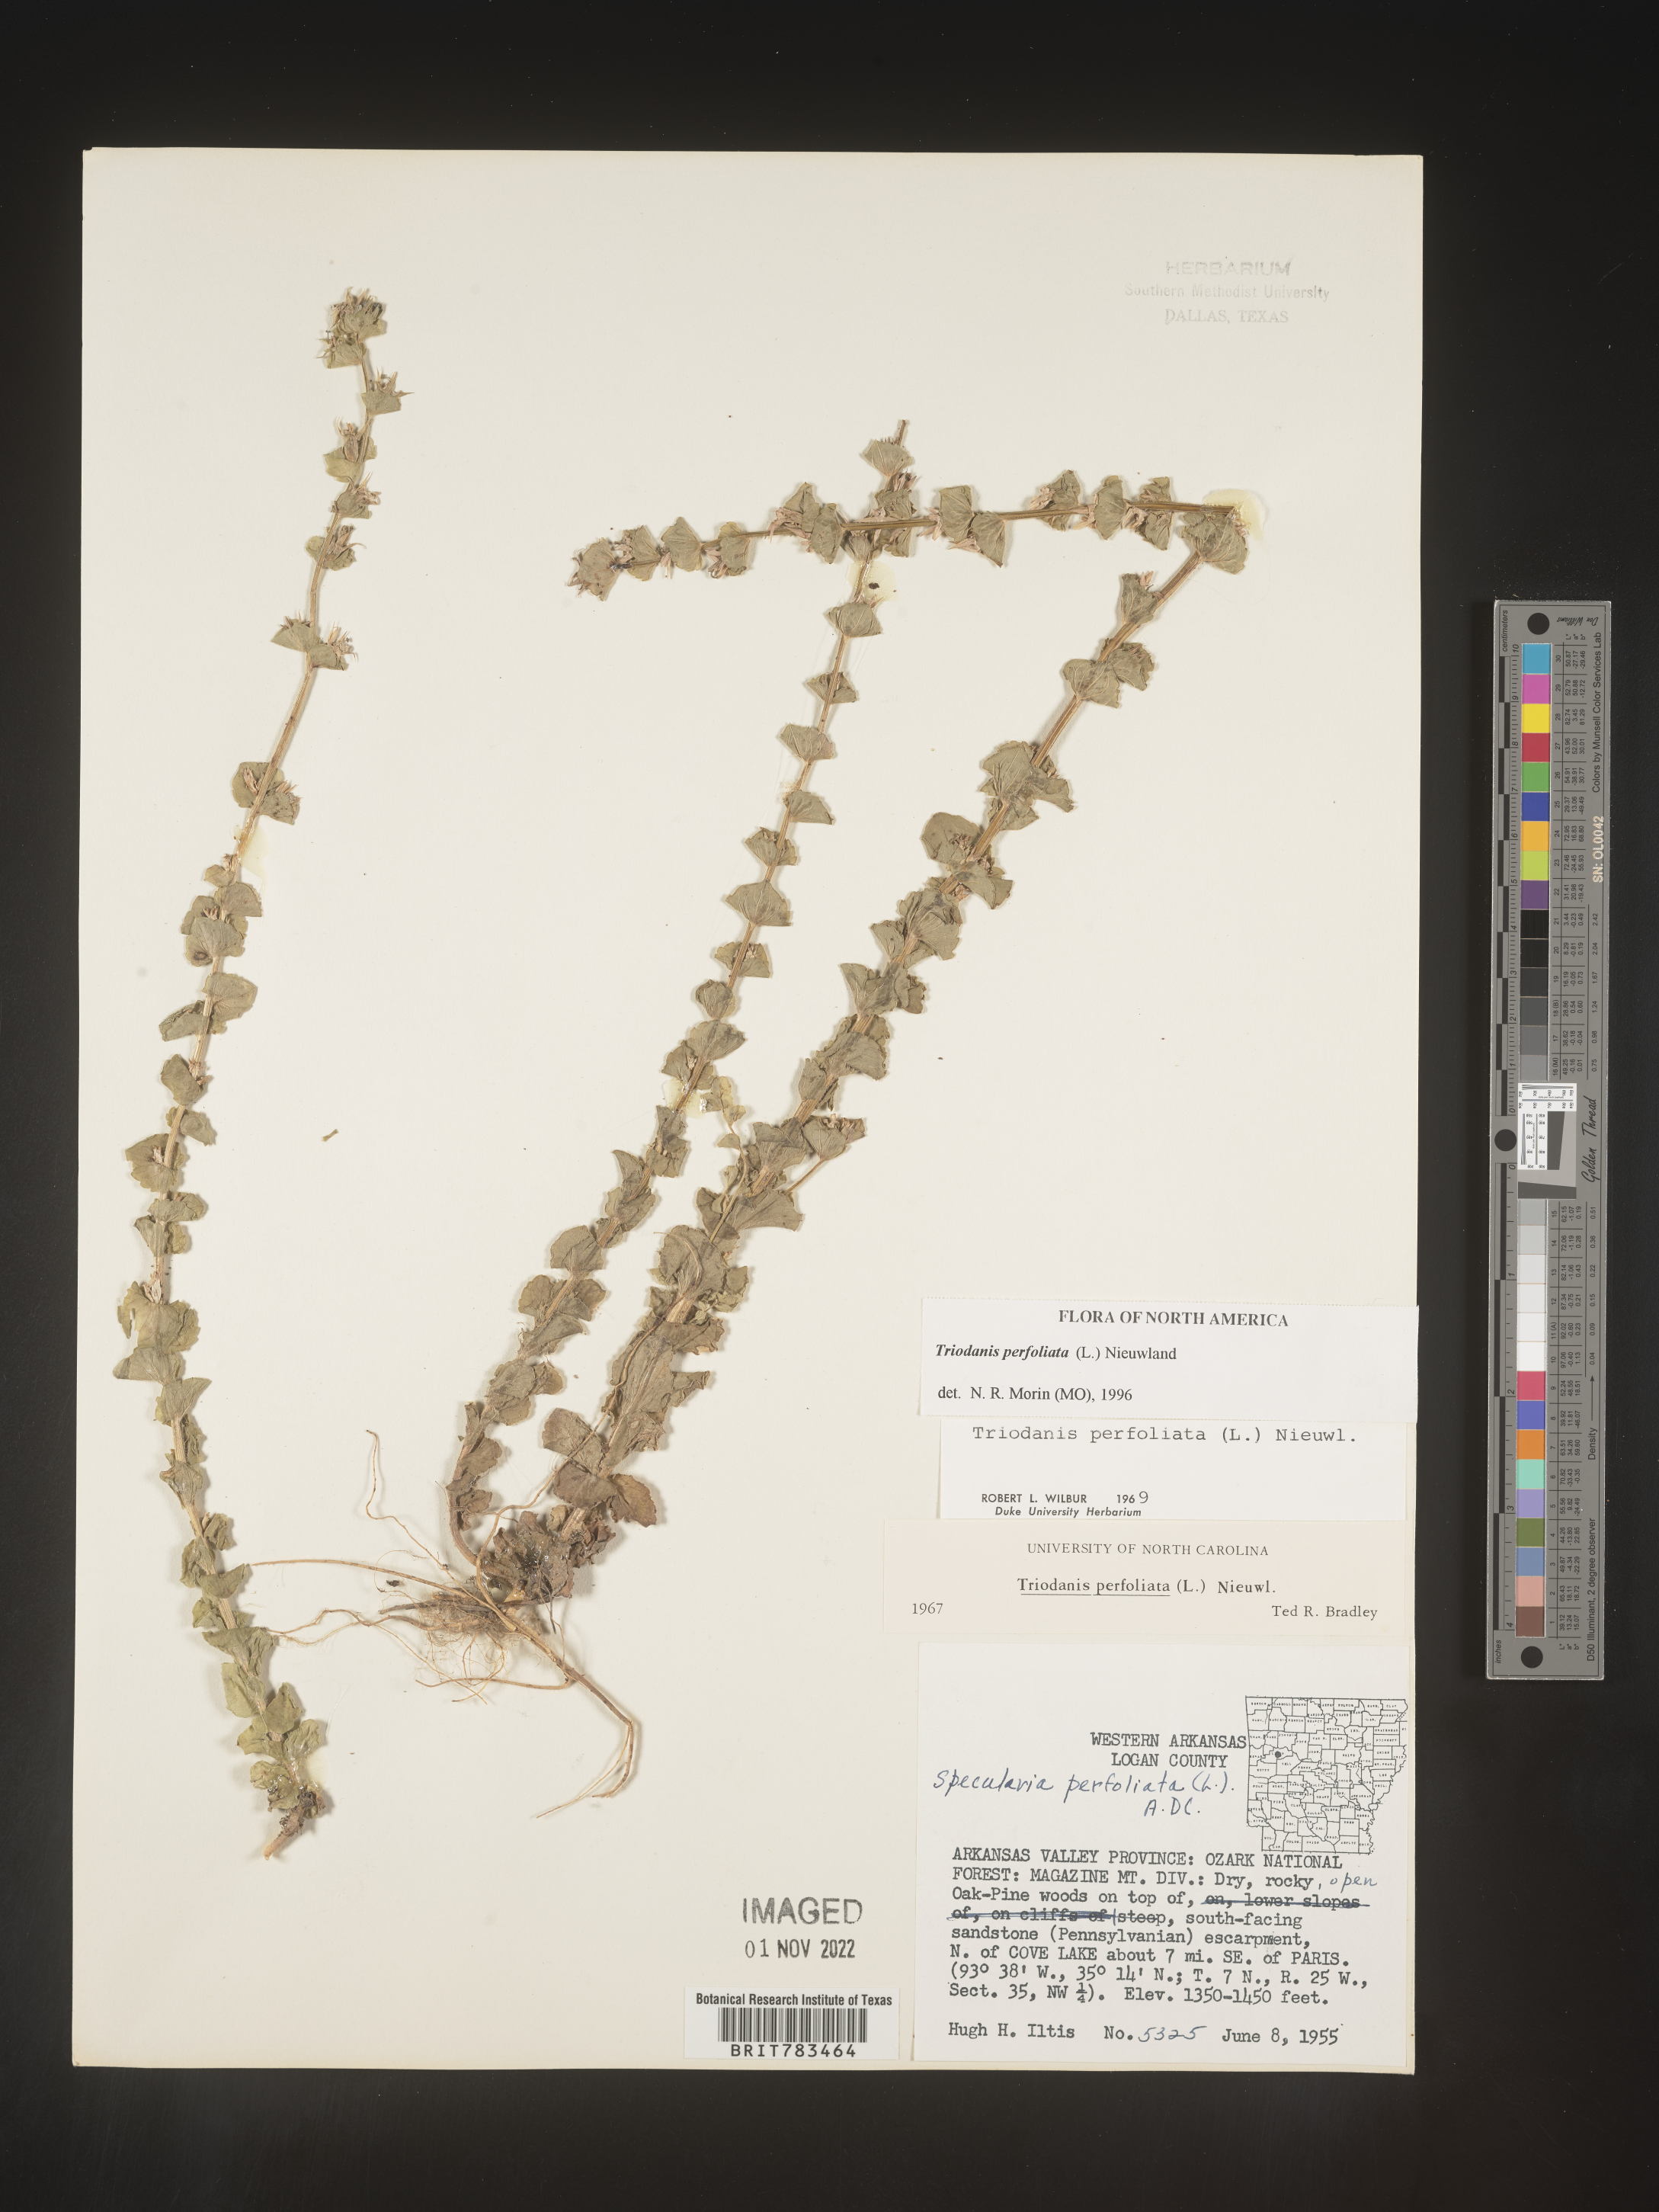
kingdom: Plantae
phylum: Tracheophyta
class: Magnoliopsida
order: Asterales
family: Campanulaceae
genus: Triodanis
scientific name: Triodanis perfoliata
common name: Clasping venus' looking-glass
